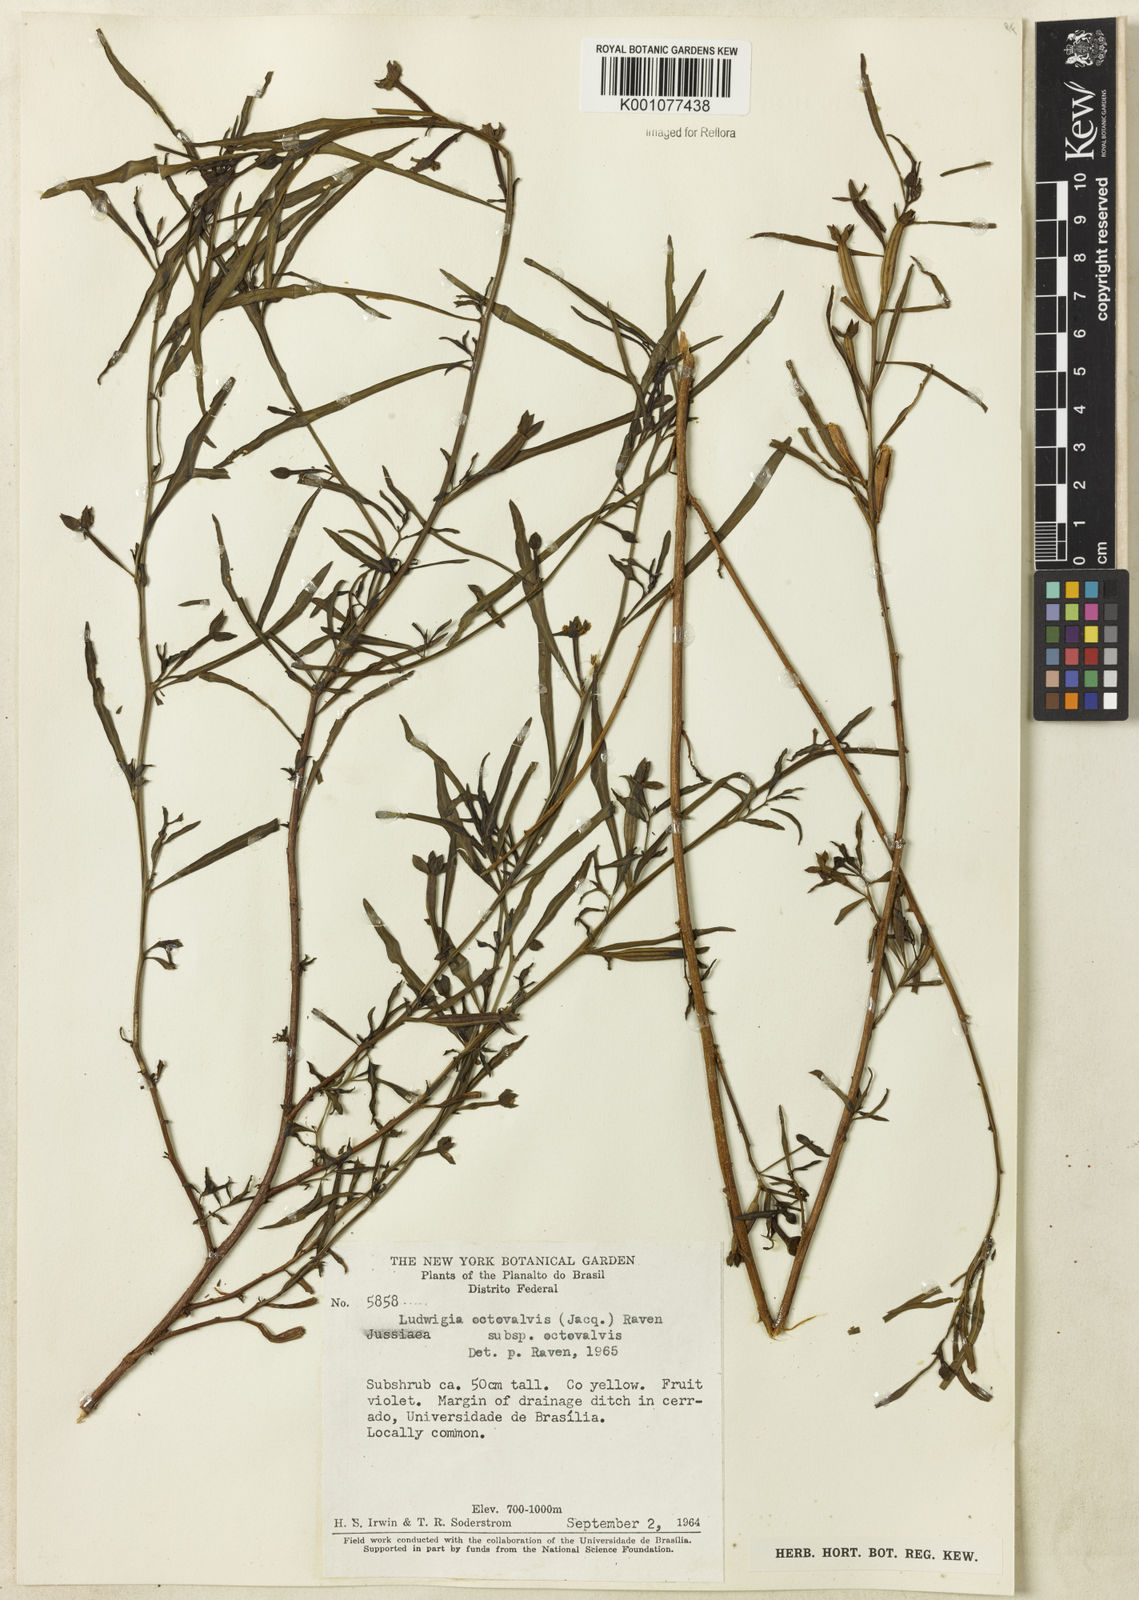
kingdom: Plantae
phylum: Tracheophyta
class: Magnoliopsida
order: Myrtales
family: Onagraceae
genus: Ludwigia
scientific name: Ludwigia octovalvis
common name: Water-primrose
